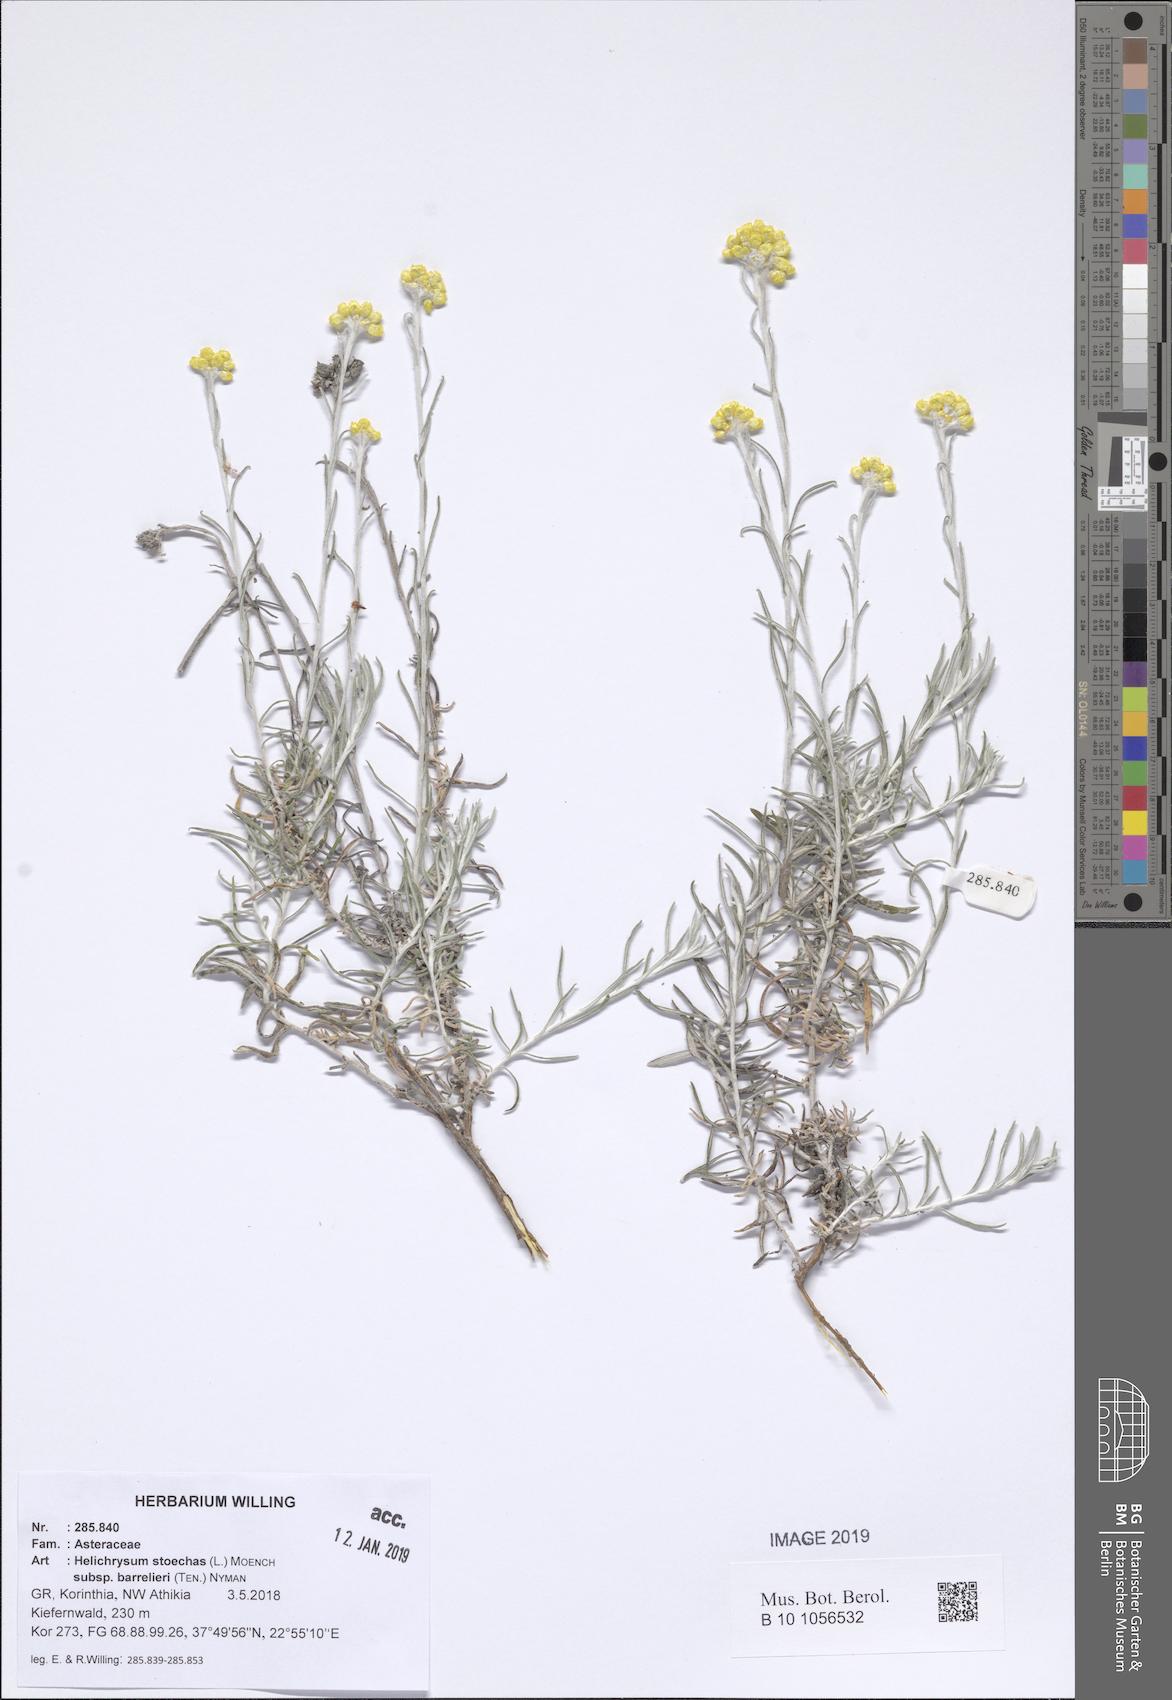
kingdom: Plantae
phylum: Tracheophyta
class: Magnoliopsida
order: Asterales
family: Asteraceae
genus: Helichrysum
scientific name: Helichrysum stoechas
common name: Goldilocks
